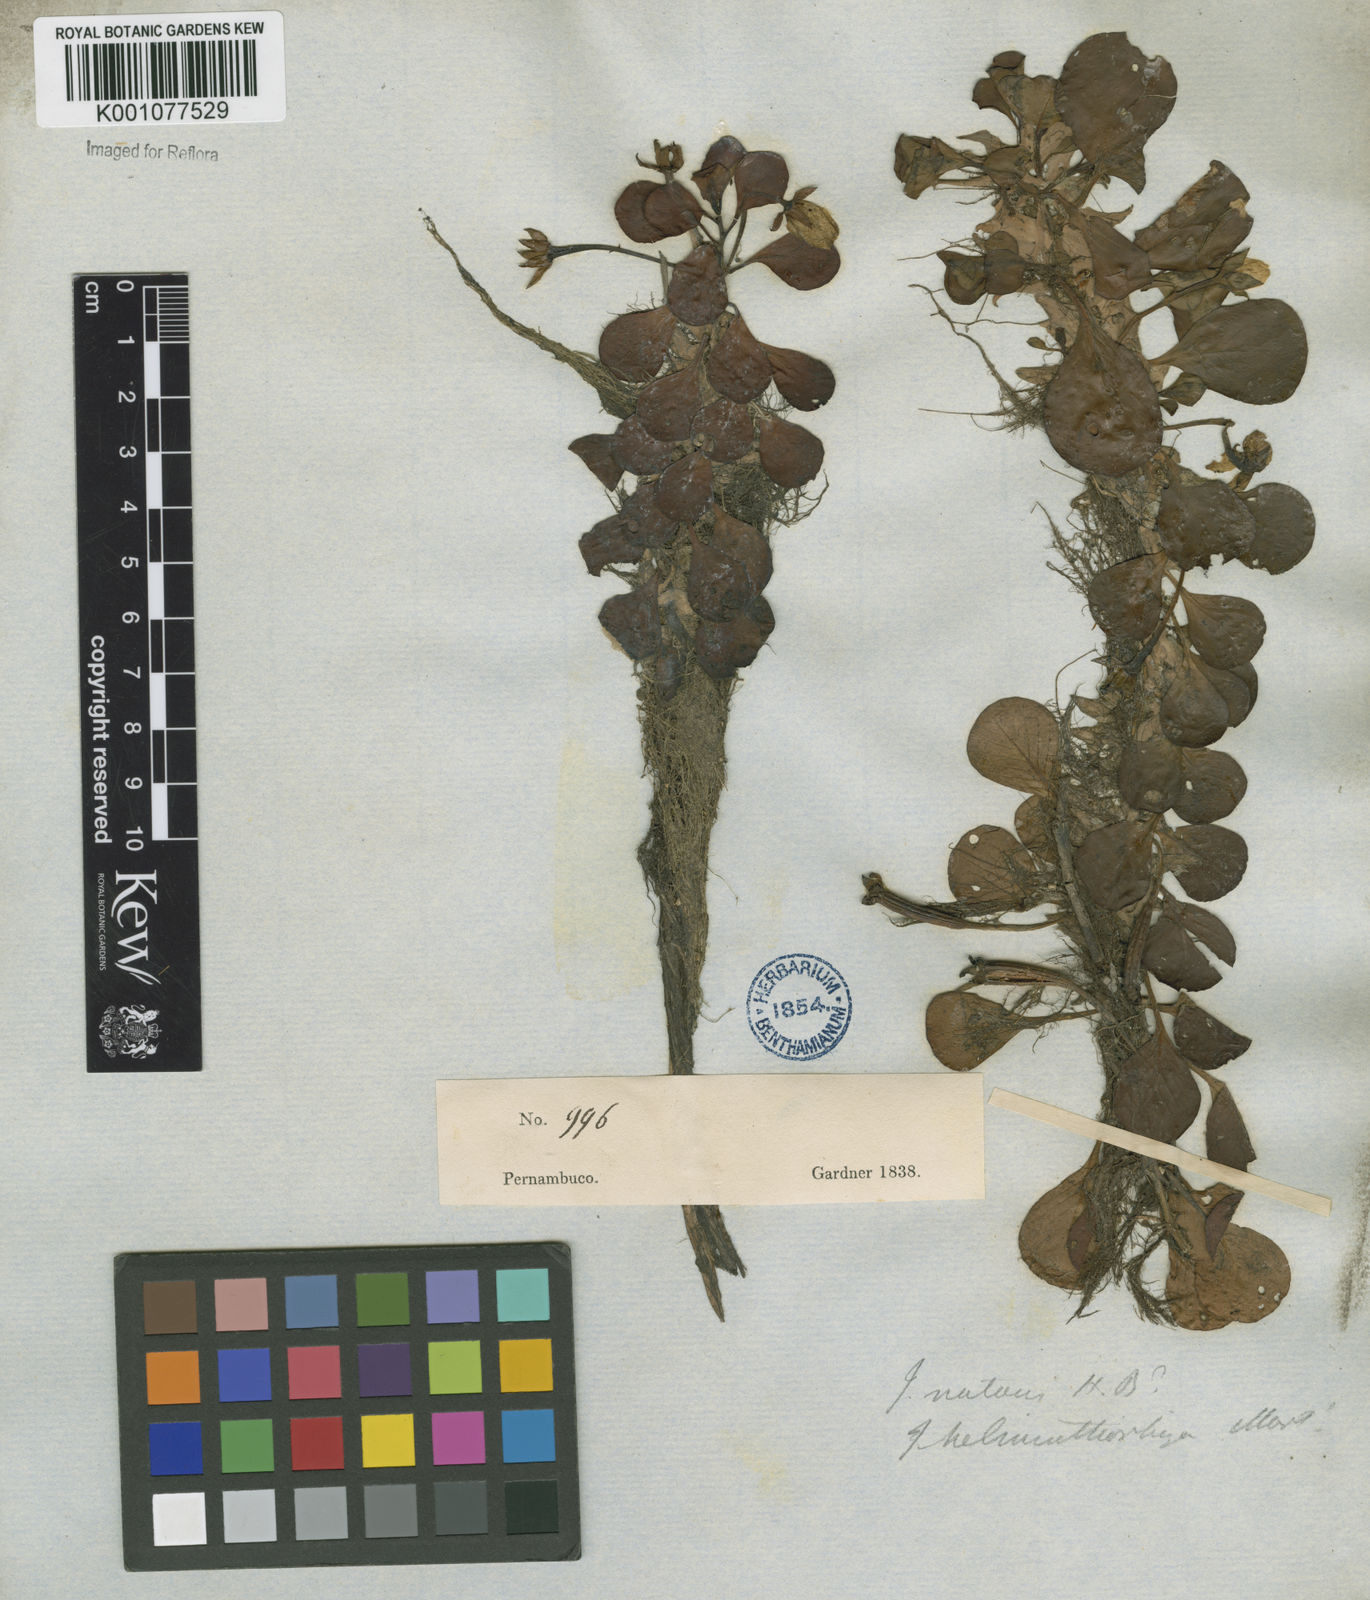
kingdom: Plantae
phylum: Tracheophyta
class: Magnoliopsida
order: Myrtales
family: Onagraceae
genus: Ludwigia
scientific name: Ludwigia helminthorrhiza
